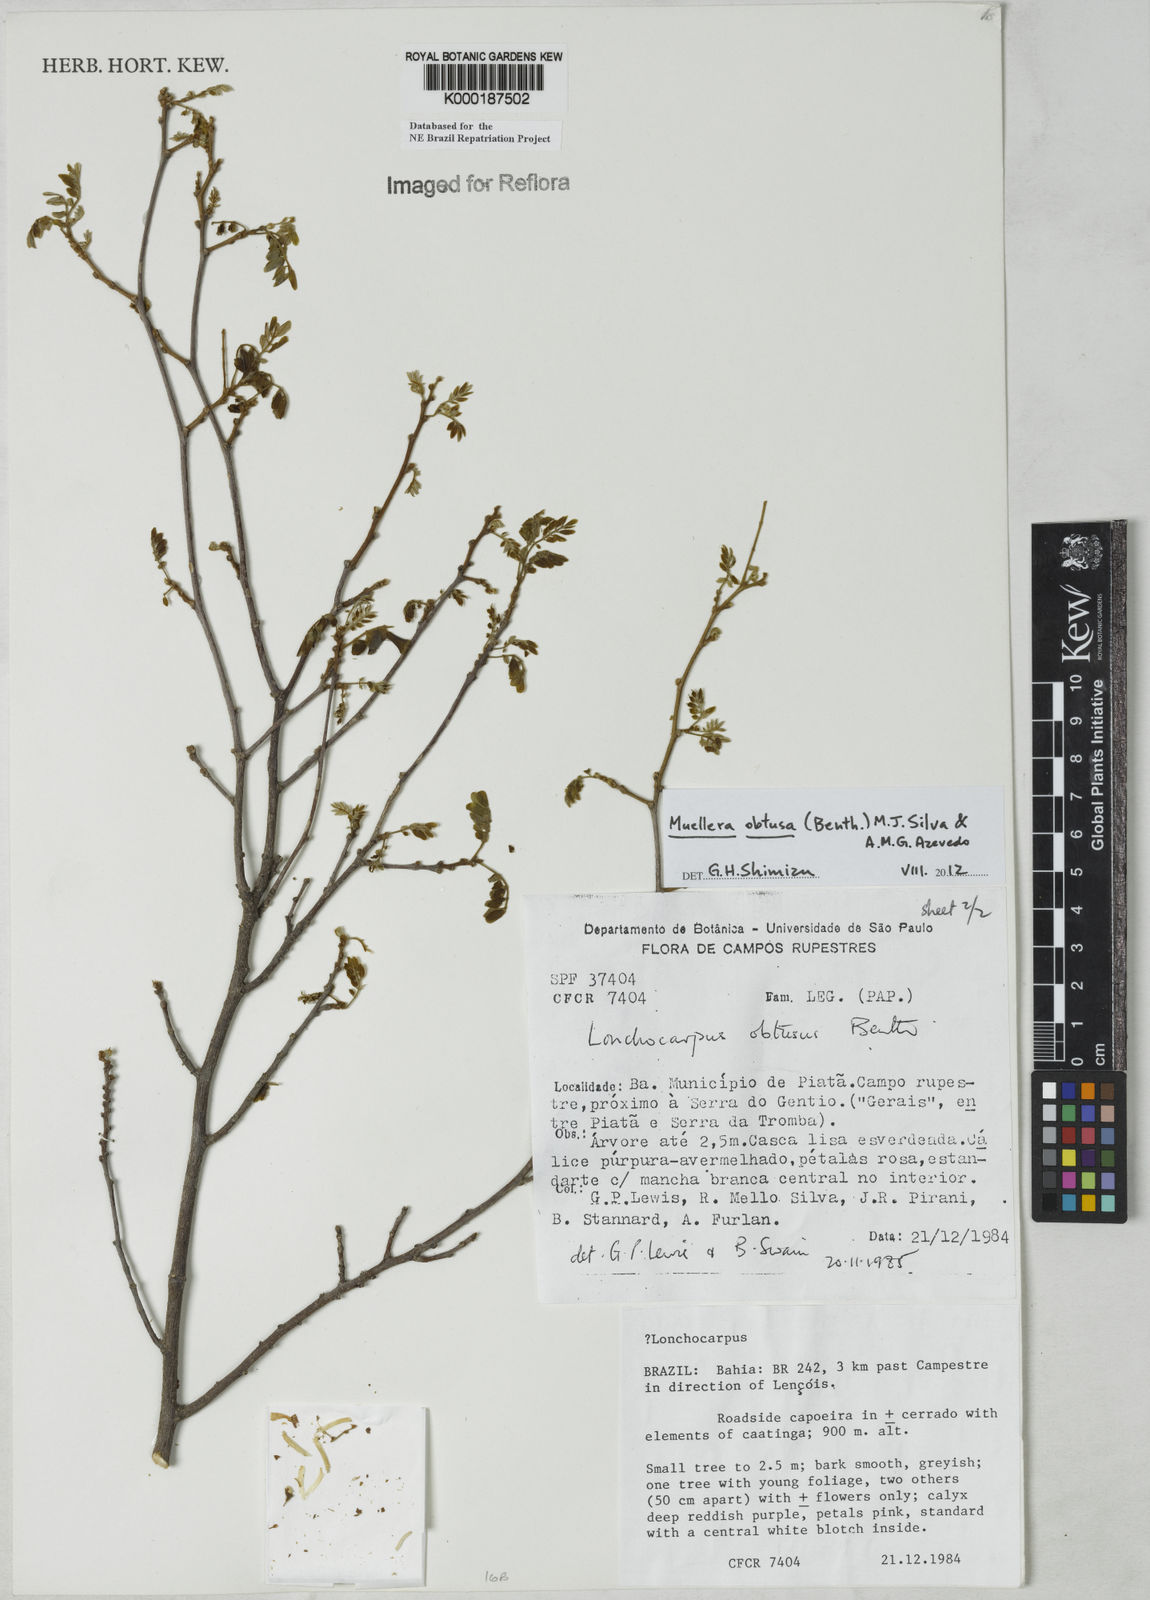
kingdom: Plantae
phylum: Tracheophyta
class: Magnoliopsida
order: Fabales
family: Fabaceae
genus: Muellera
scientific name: Muellera obtusa
